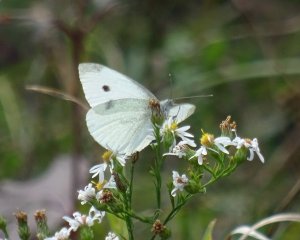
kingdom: Animalia
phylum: Arthropoda
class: Insecta
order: Lepidoptera
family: Pieridae
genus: Pieris
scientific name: Pieris rapae
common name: Cabbage White
